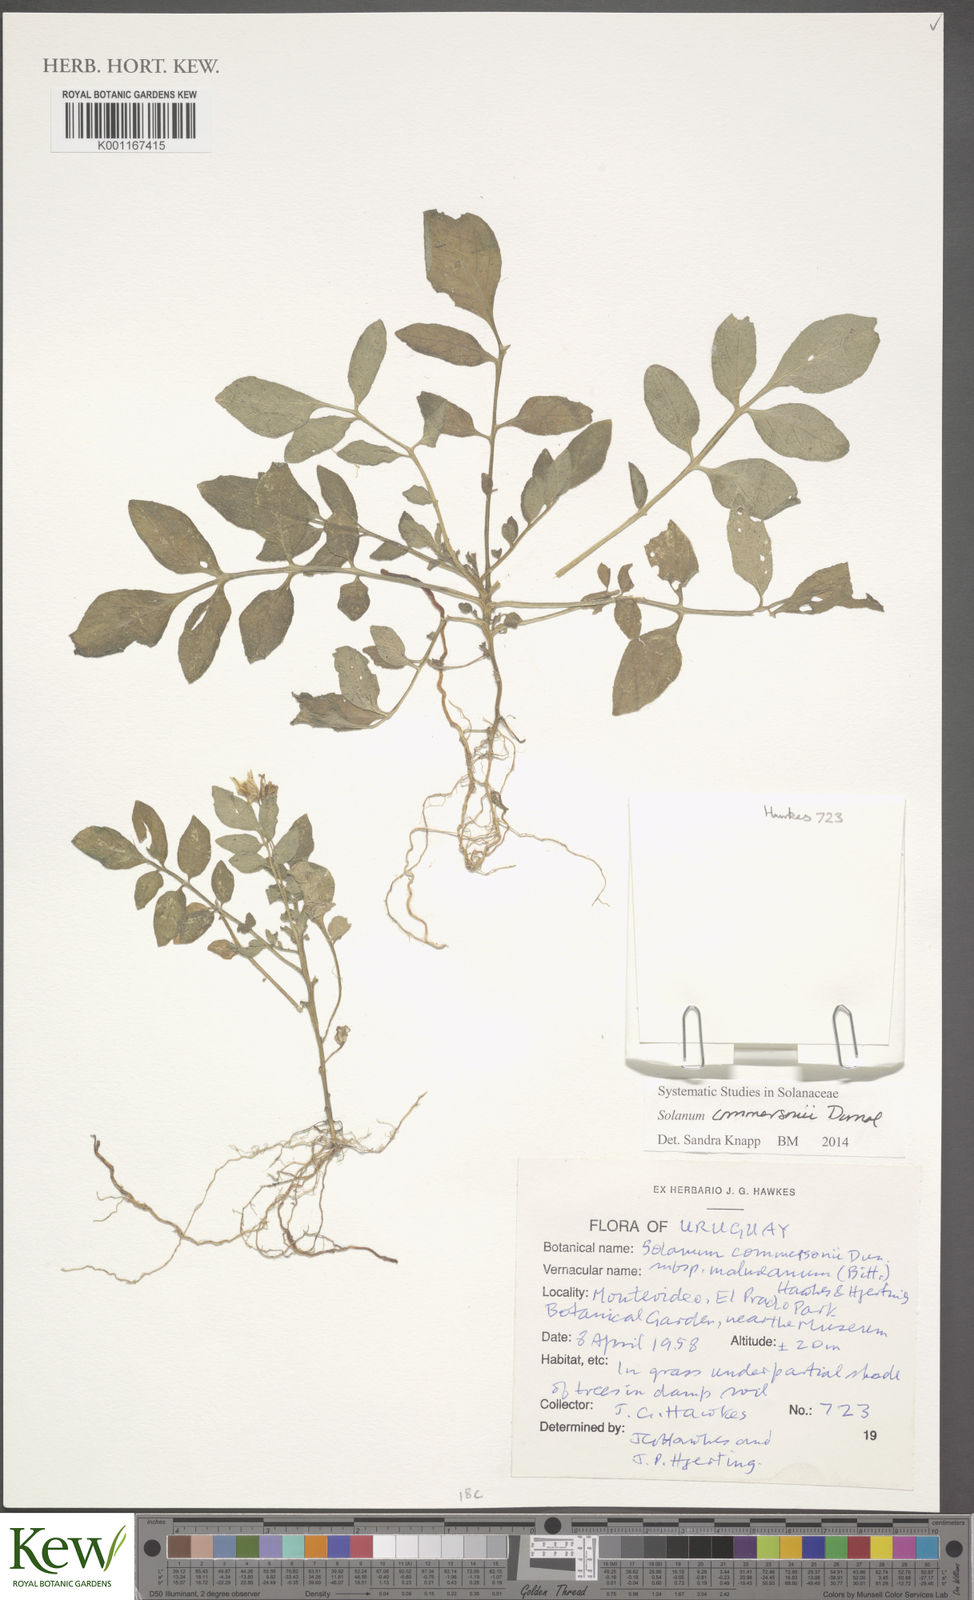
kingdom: Plantae
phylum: Tracheophyta
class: Magnoliopsida
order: Solanales
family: Solanaceae
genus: Solanum
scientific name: Solanum commersonii
